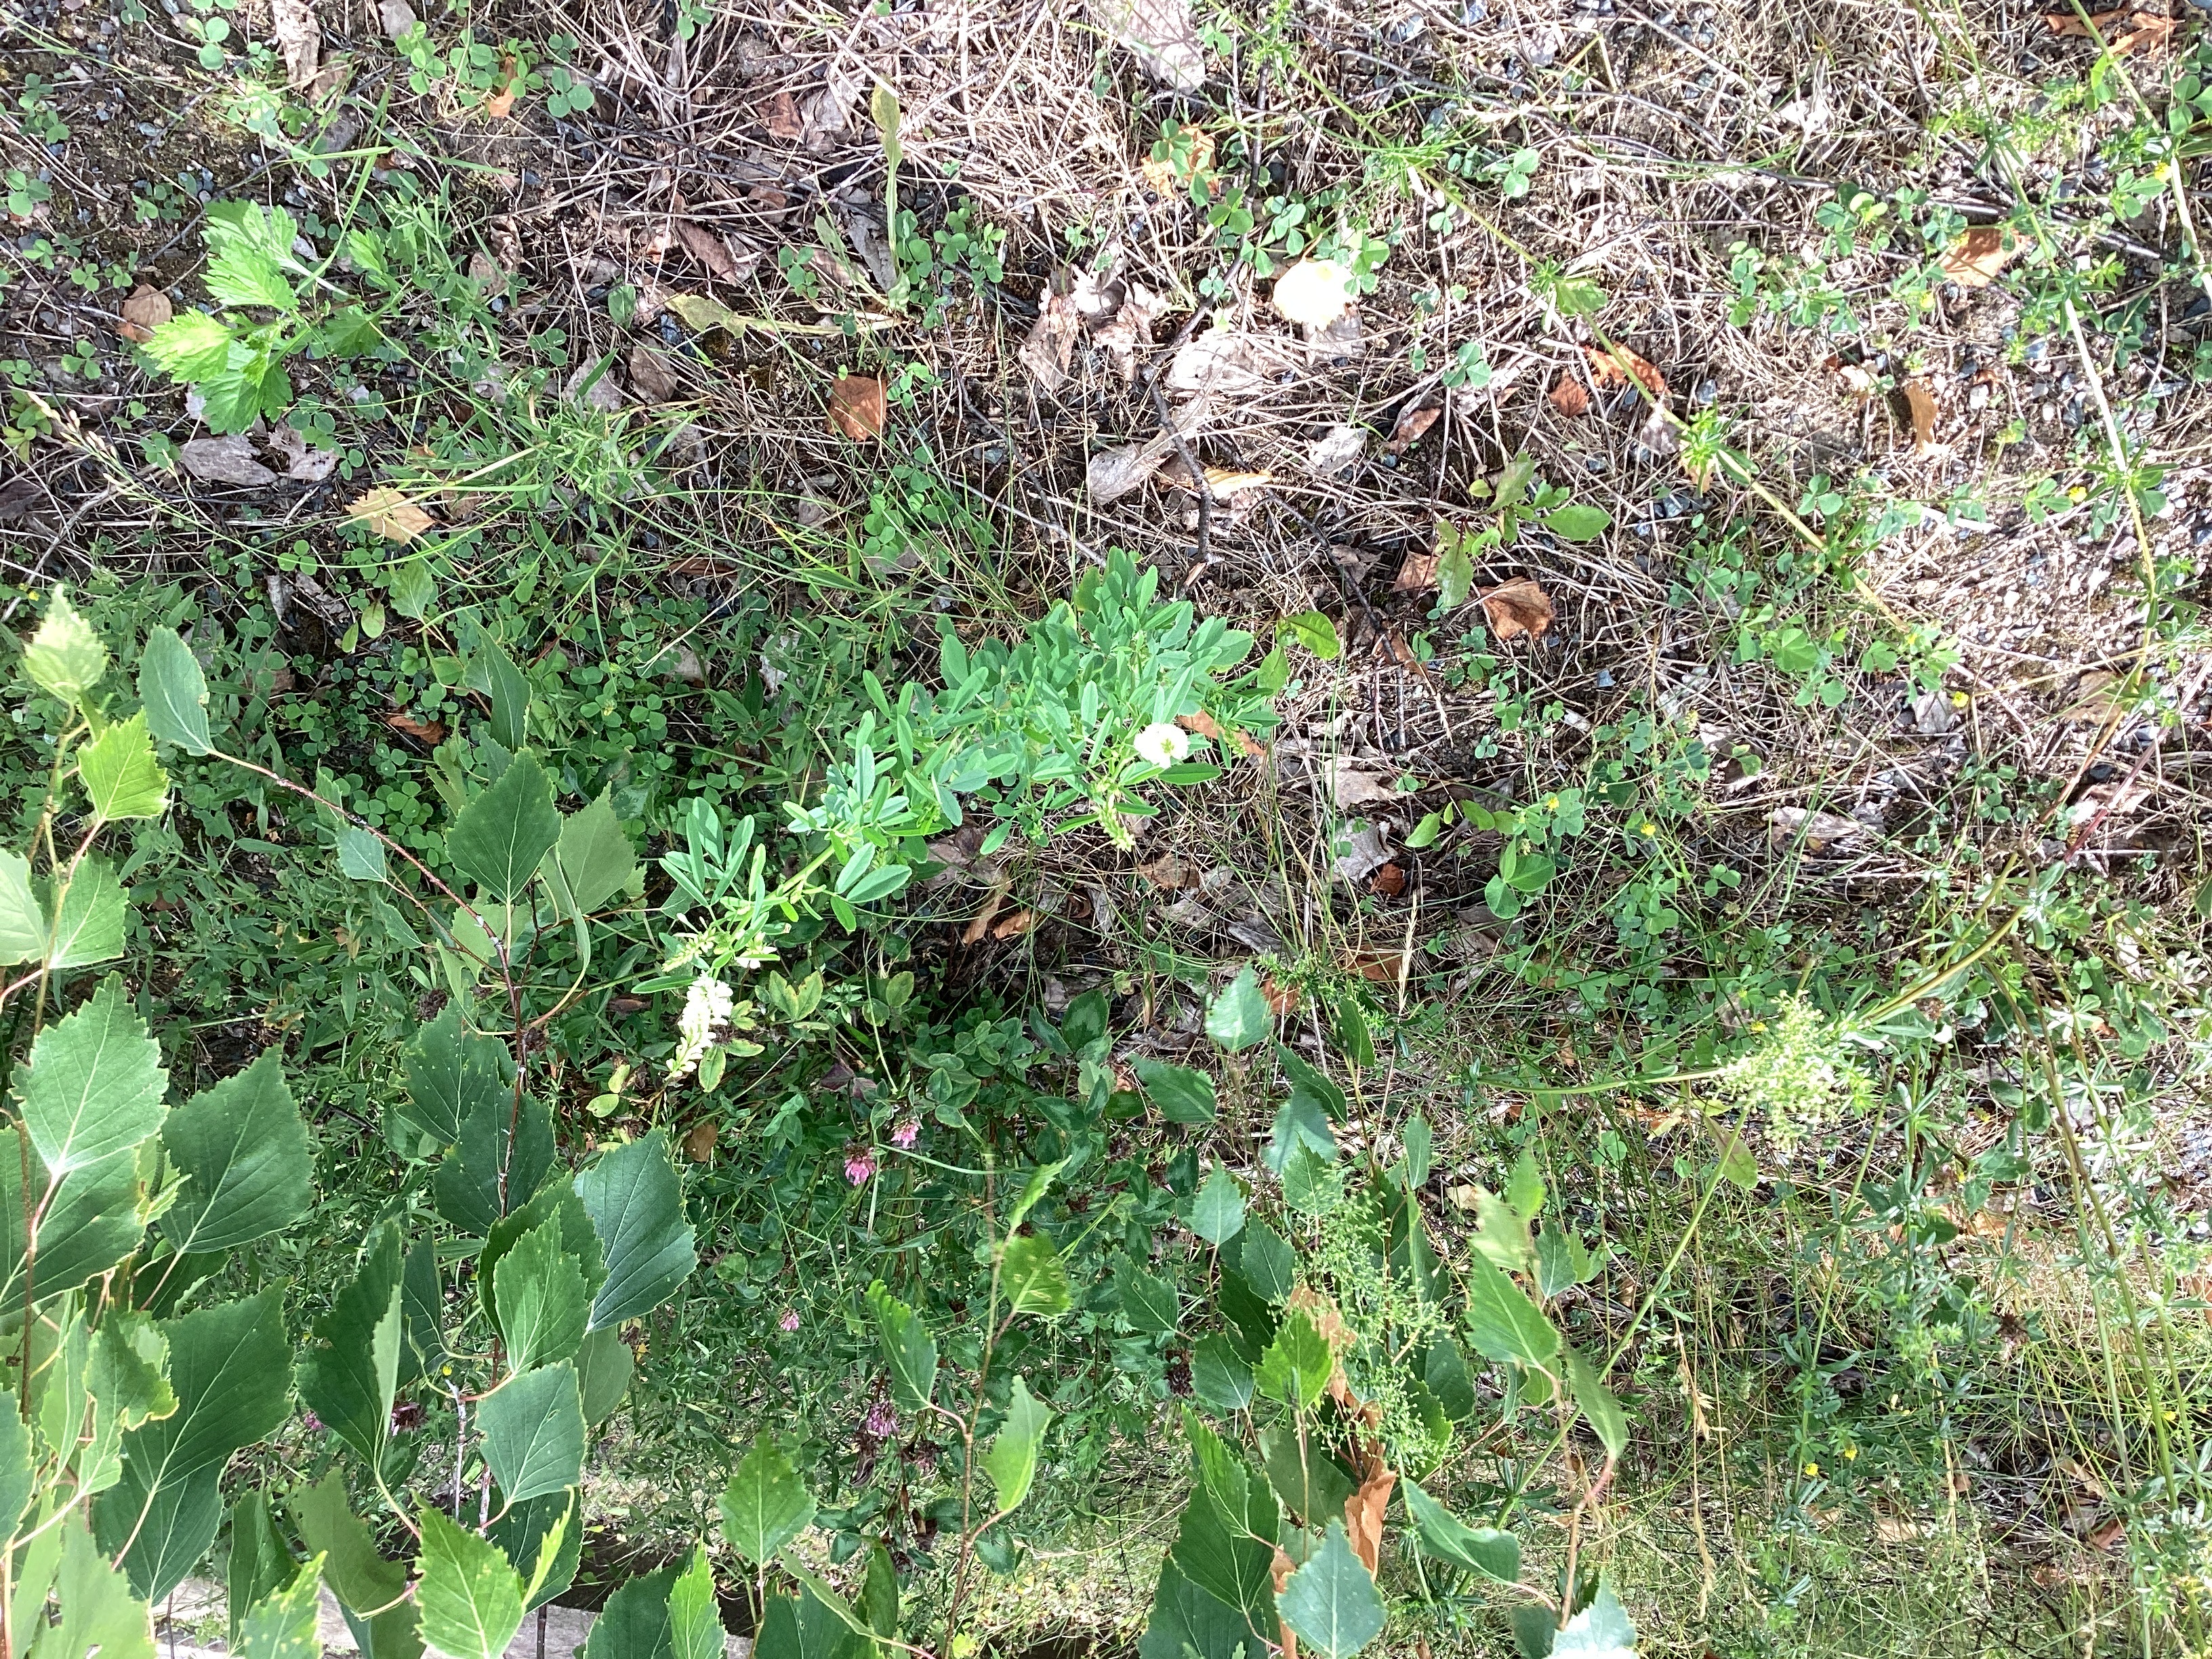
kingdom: Plantae
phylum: Tracheophyta
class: Magnoliopsida
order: Fabales
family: Fabaceae
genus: Melilotus
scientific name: Melilotus albus
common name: hvitsteinkløver
